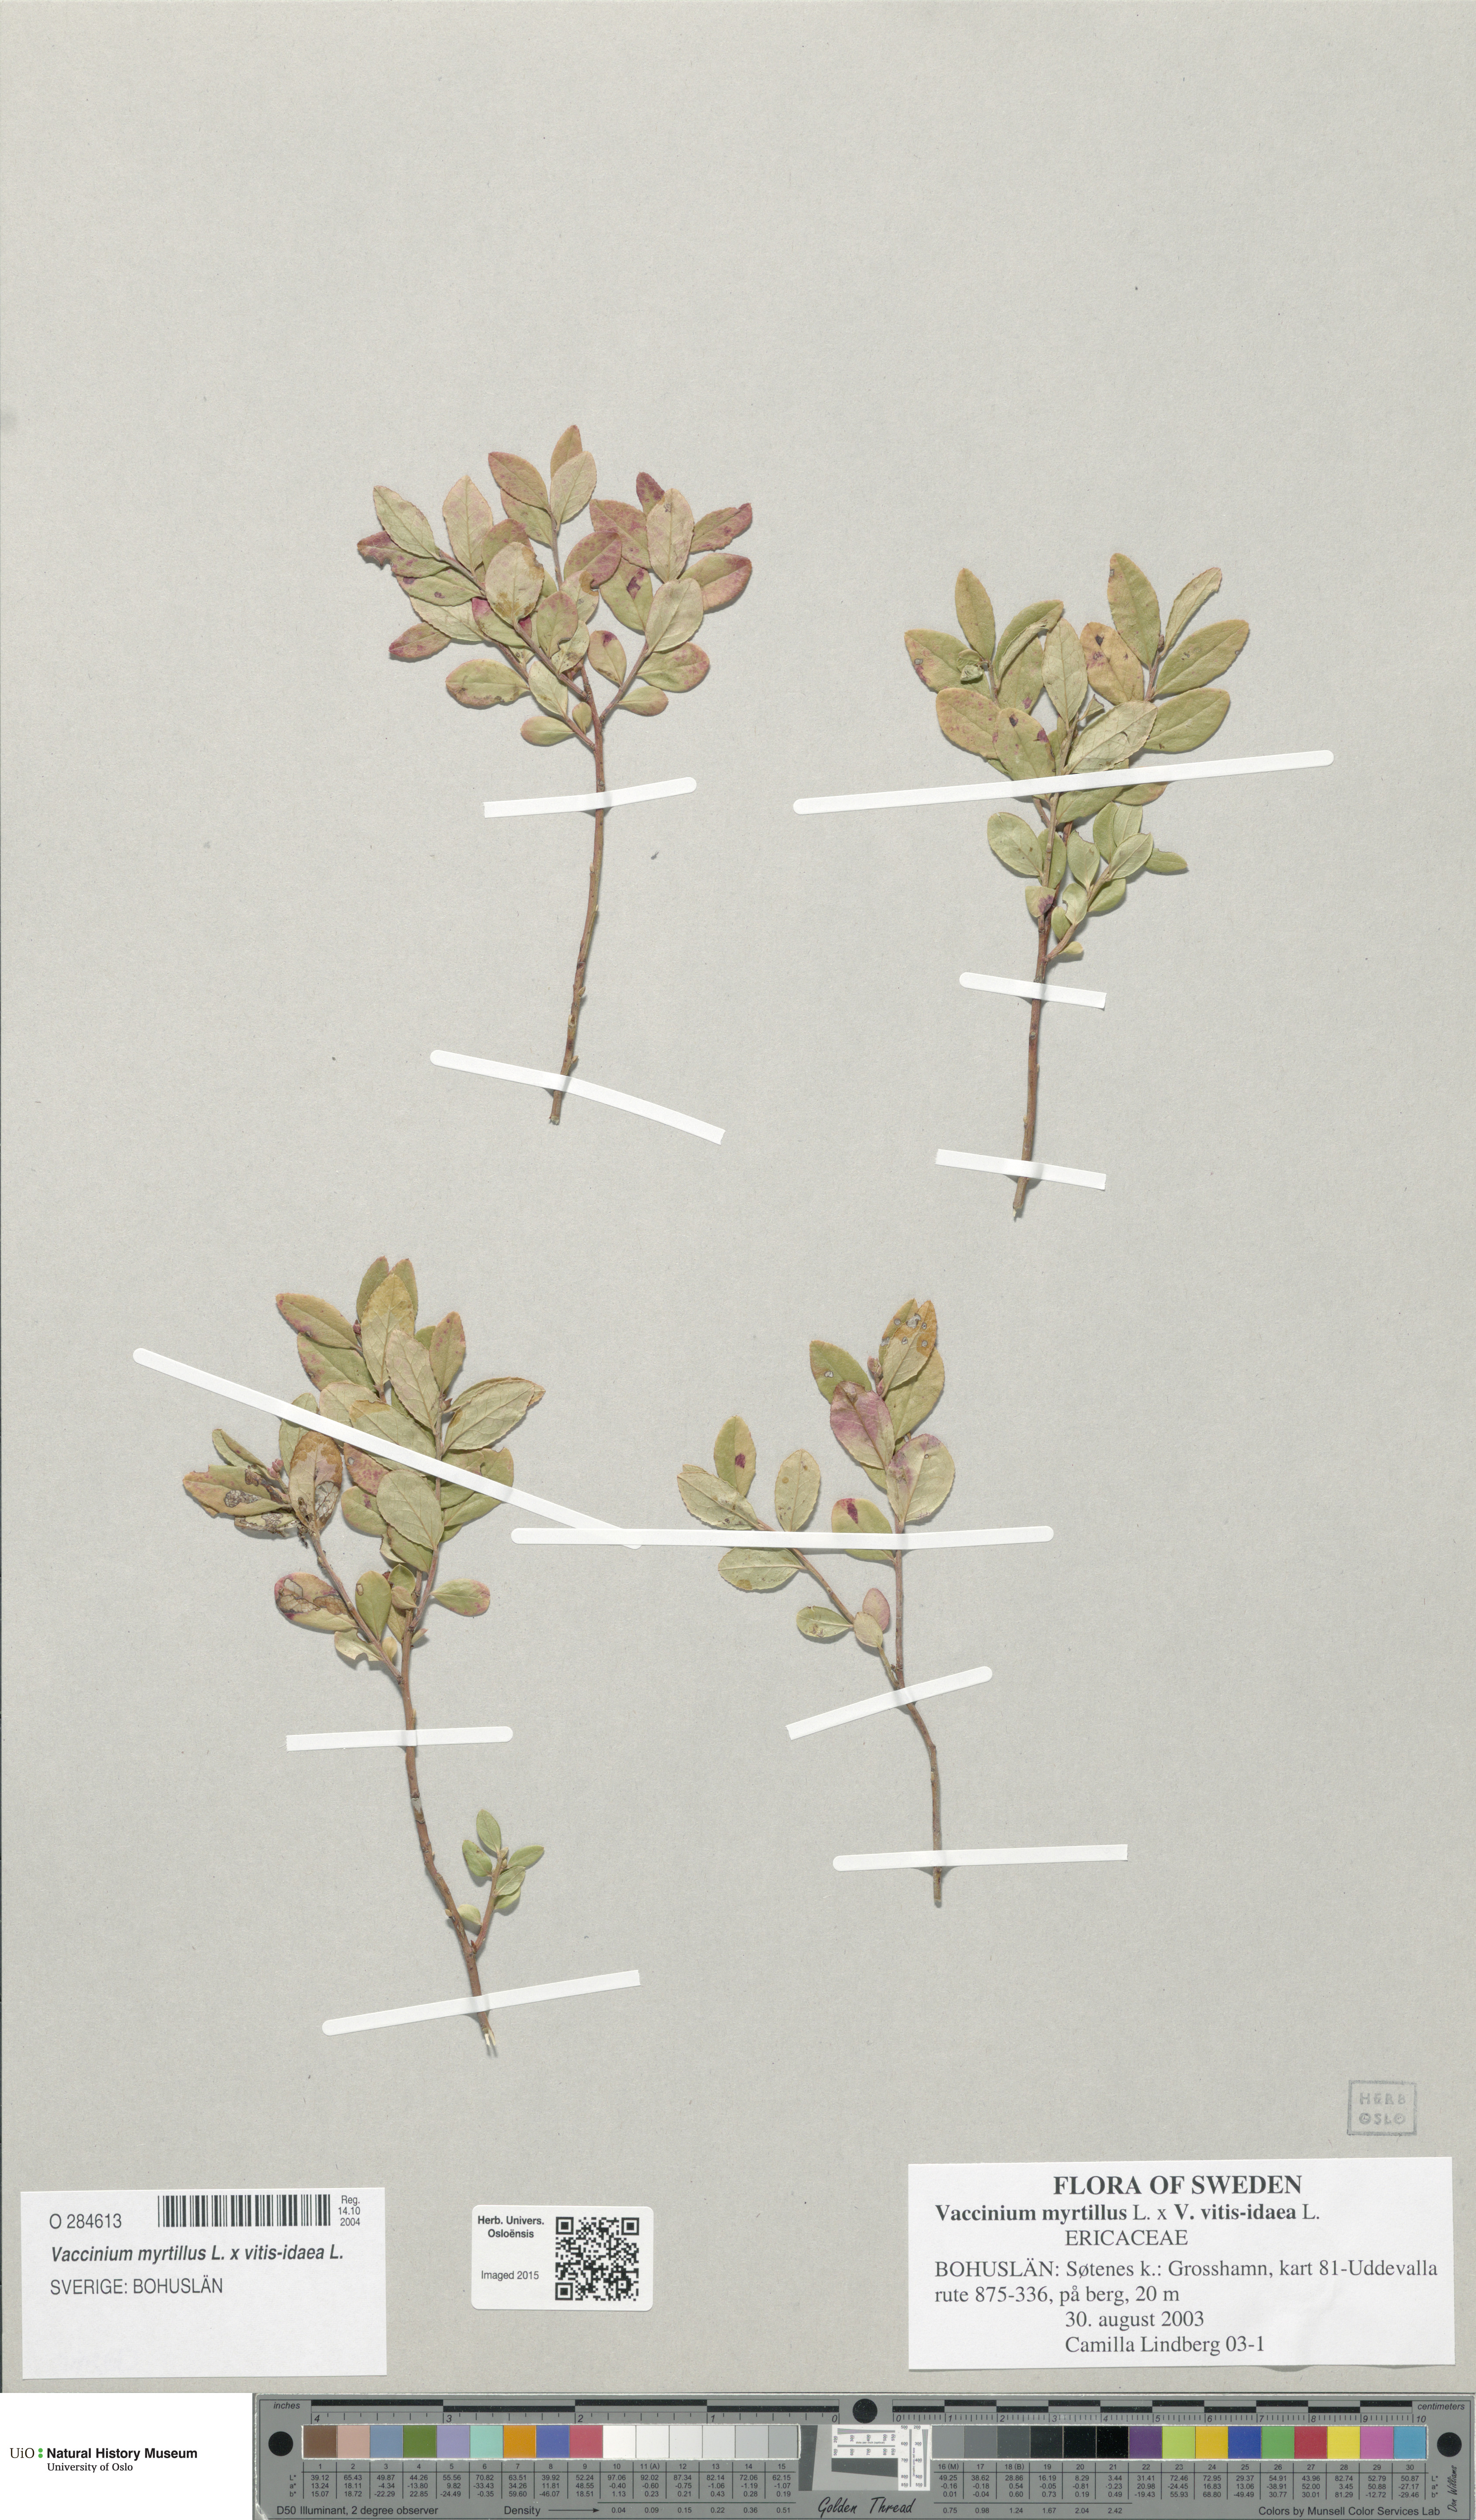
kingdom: Plantae
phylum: Tracheophyta
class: Magnoliopsida
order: Ericales
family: Ericaceae
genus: Vaccinium
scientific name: Vaccinium
